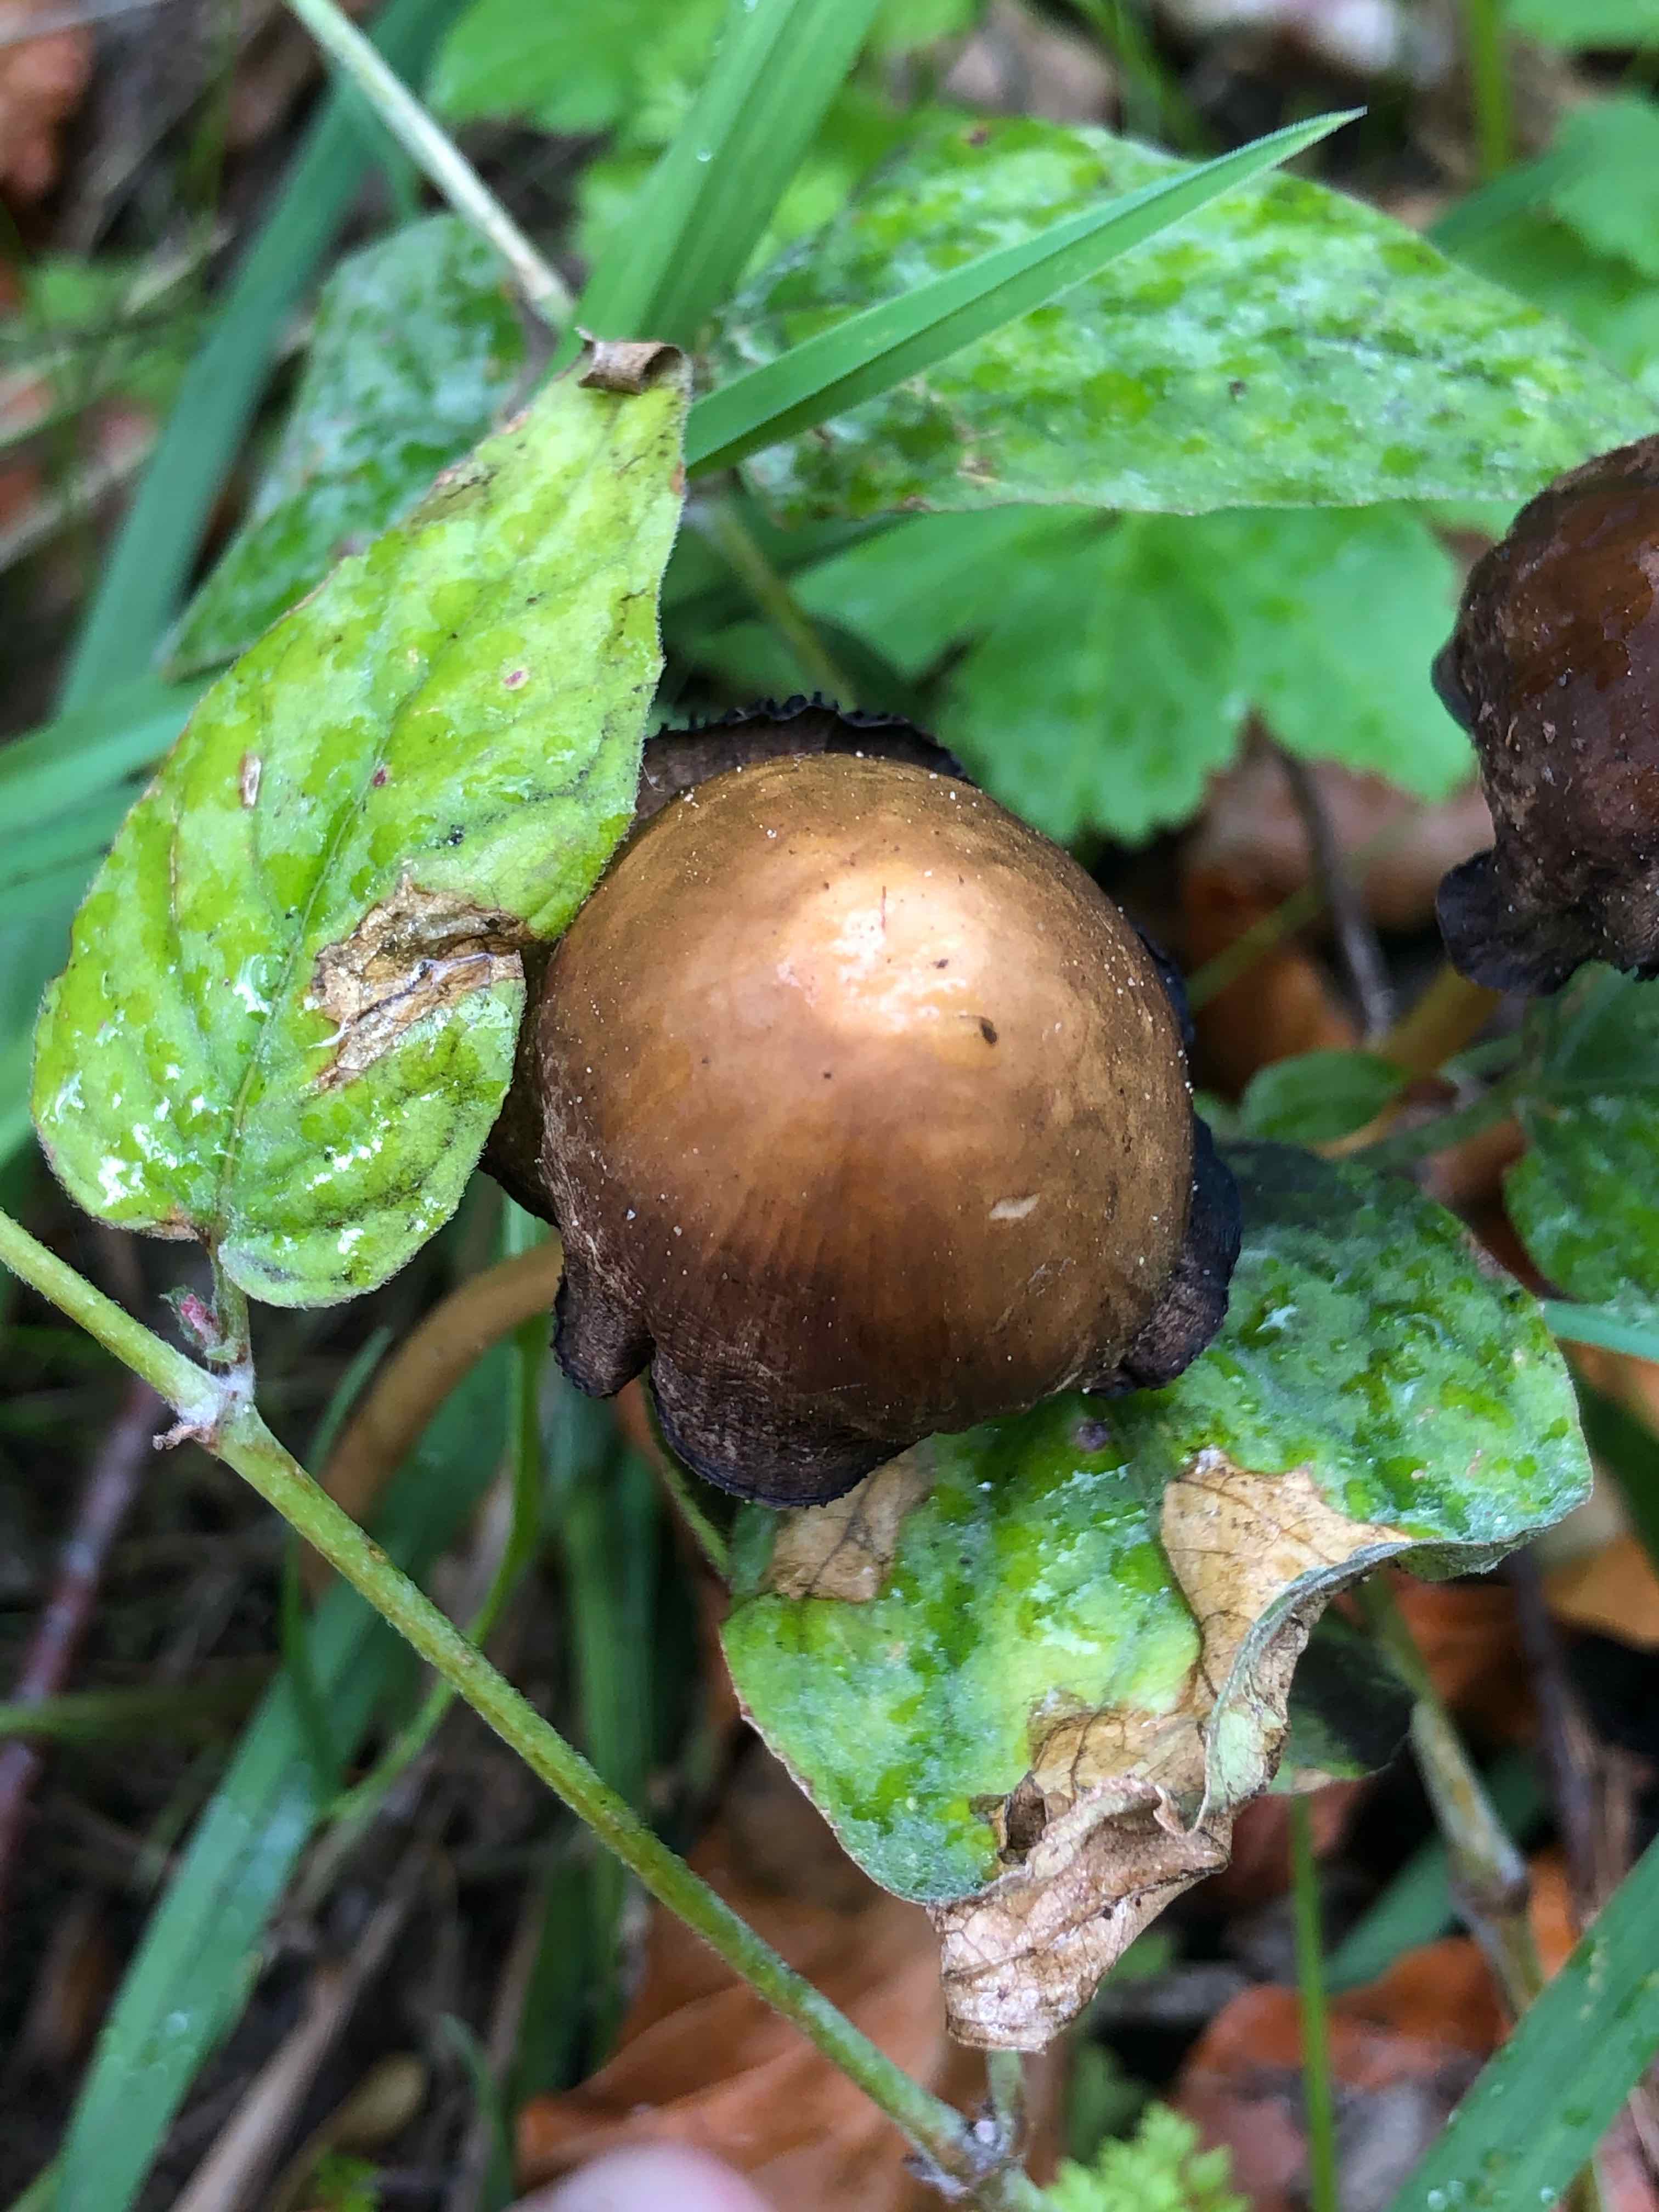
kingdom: Fungi
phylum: Basidiomycota
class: Agaricomycetes
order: Agaricales
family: Psathyrellaceae
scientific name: Psathyrellaceae
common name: mørkhatfamilien
